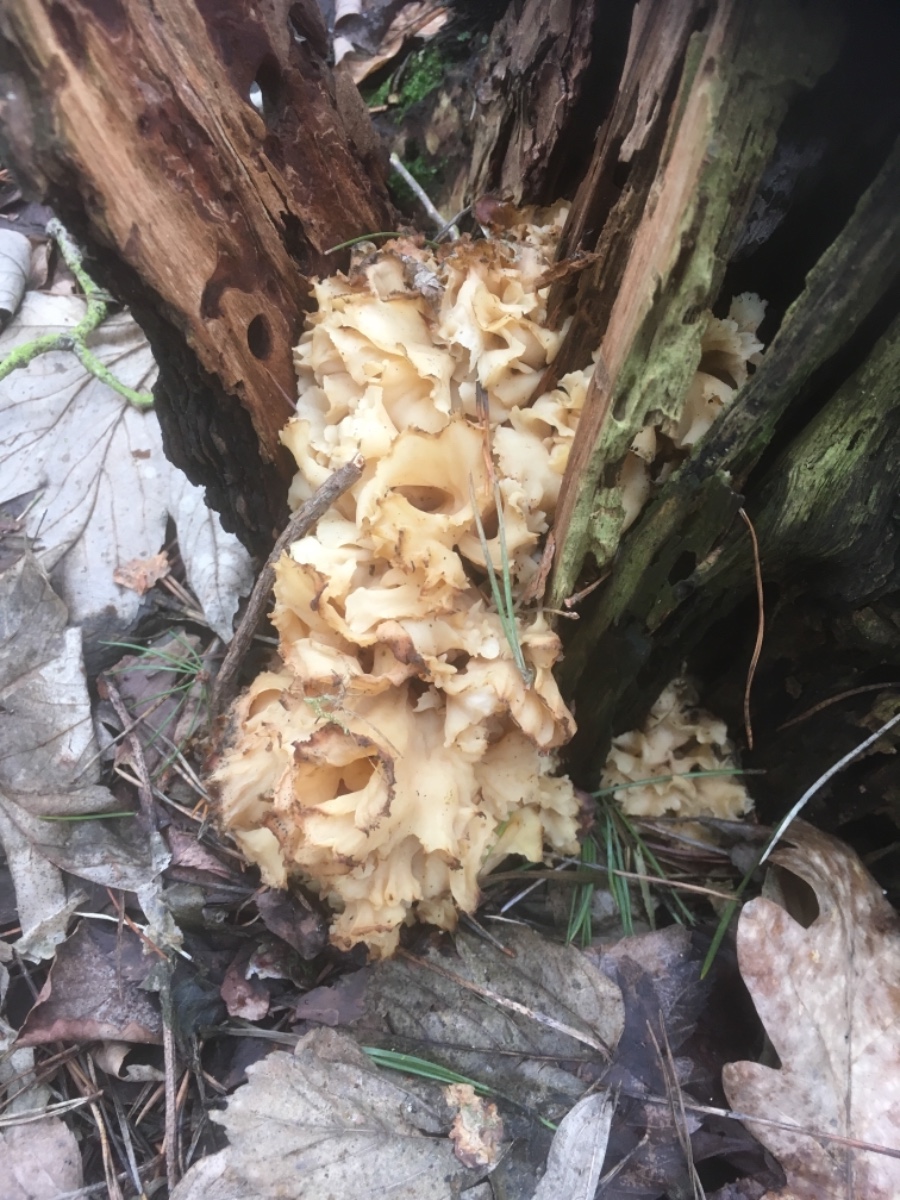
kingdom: Fungi
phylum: Basidiomycota
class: Agaricomycetes
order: Polyporales
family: Sparassidaceae
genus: Sparassis
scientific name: Sparassis crispa
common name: kruset blomkålssvamp
